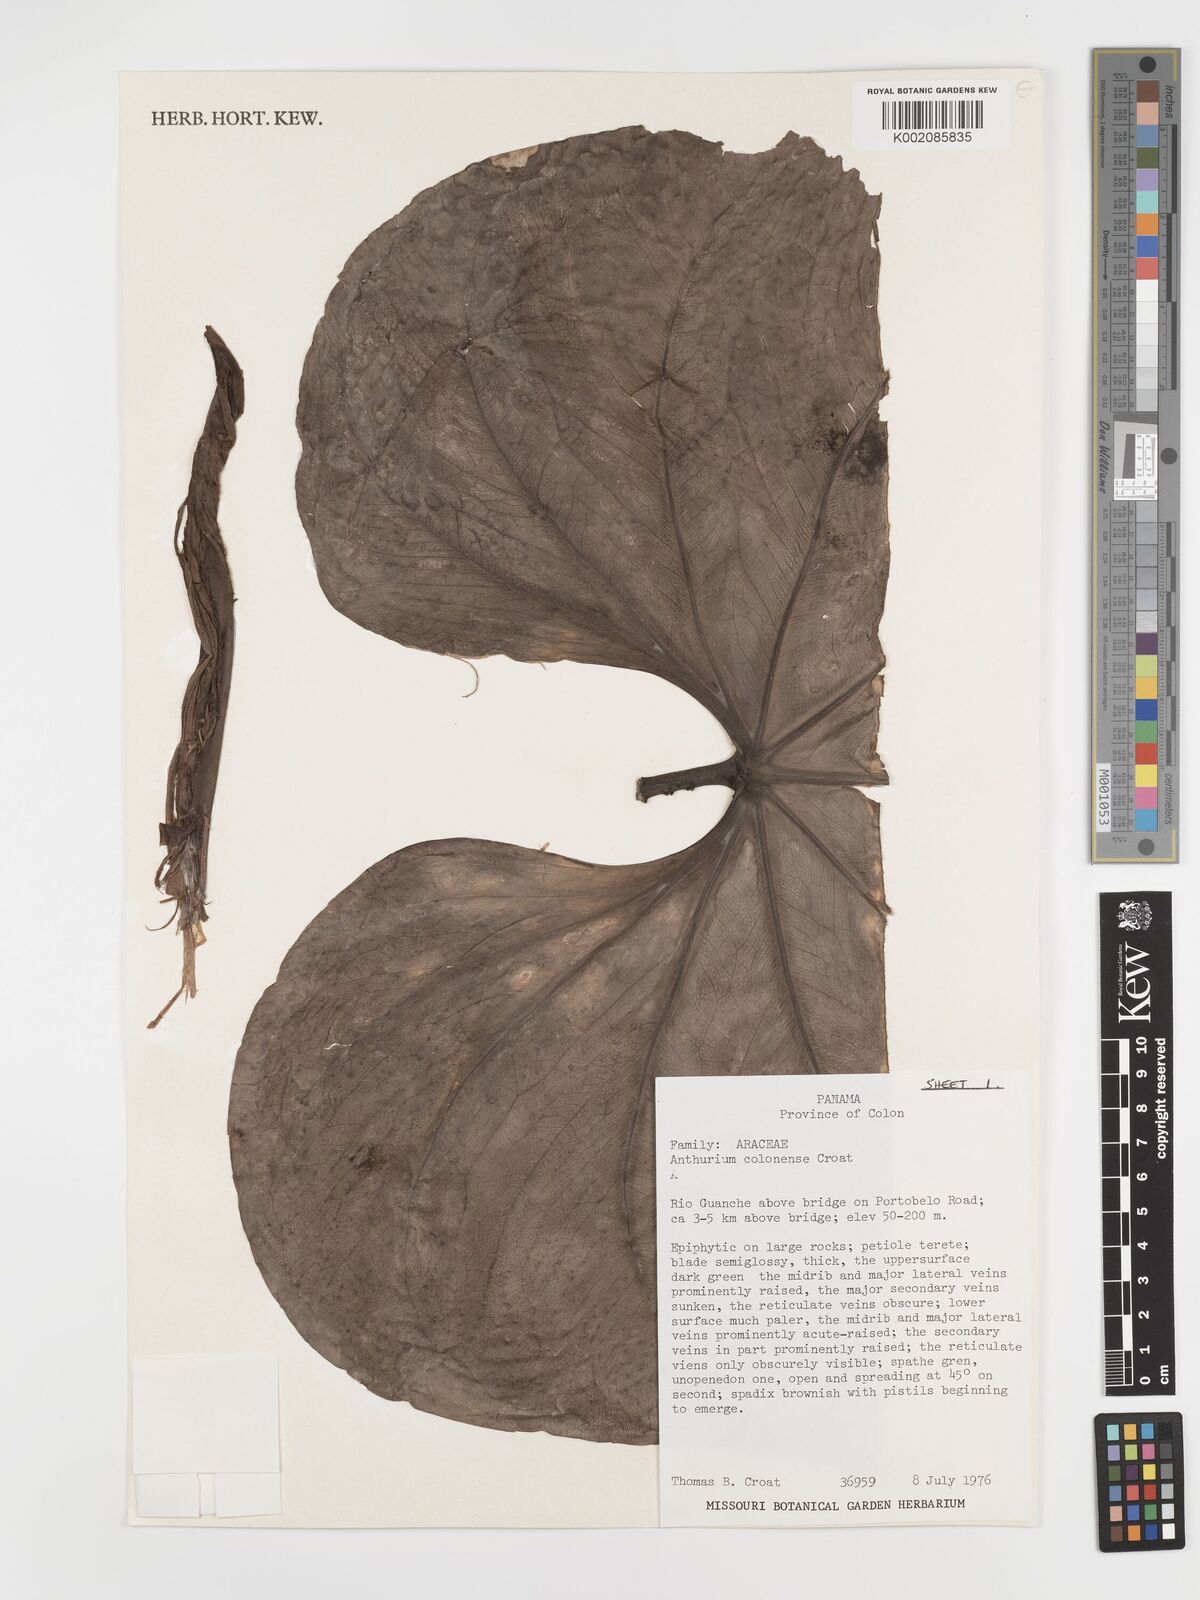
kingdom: Plantae
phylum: Tracheophyta
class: Liliopsida
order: Alismatales
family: Araceae
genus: Anthurium
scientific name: Anthurium colonense
